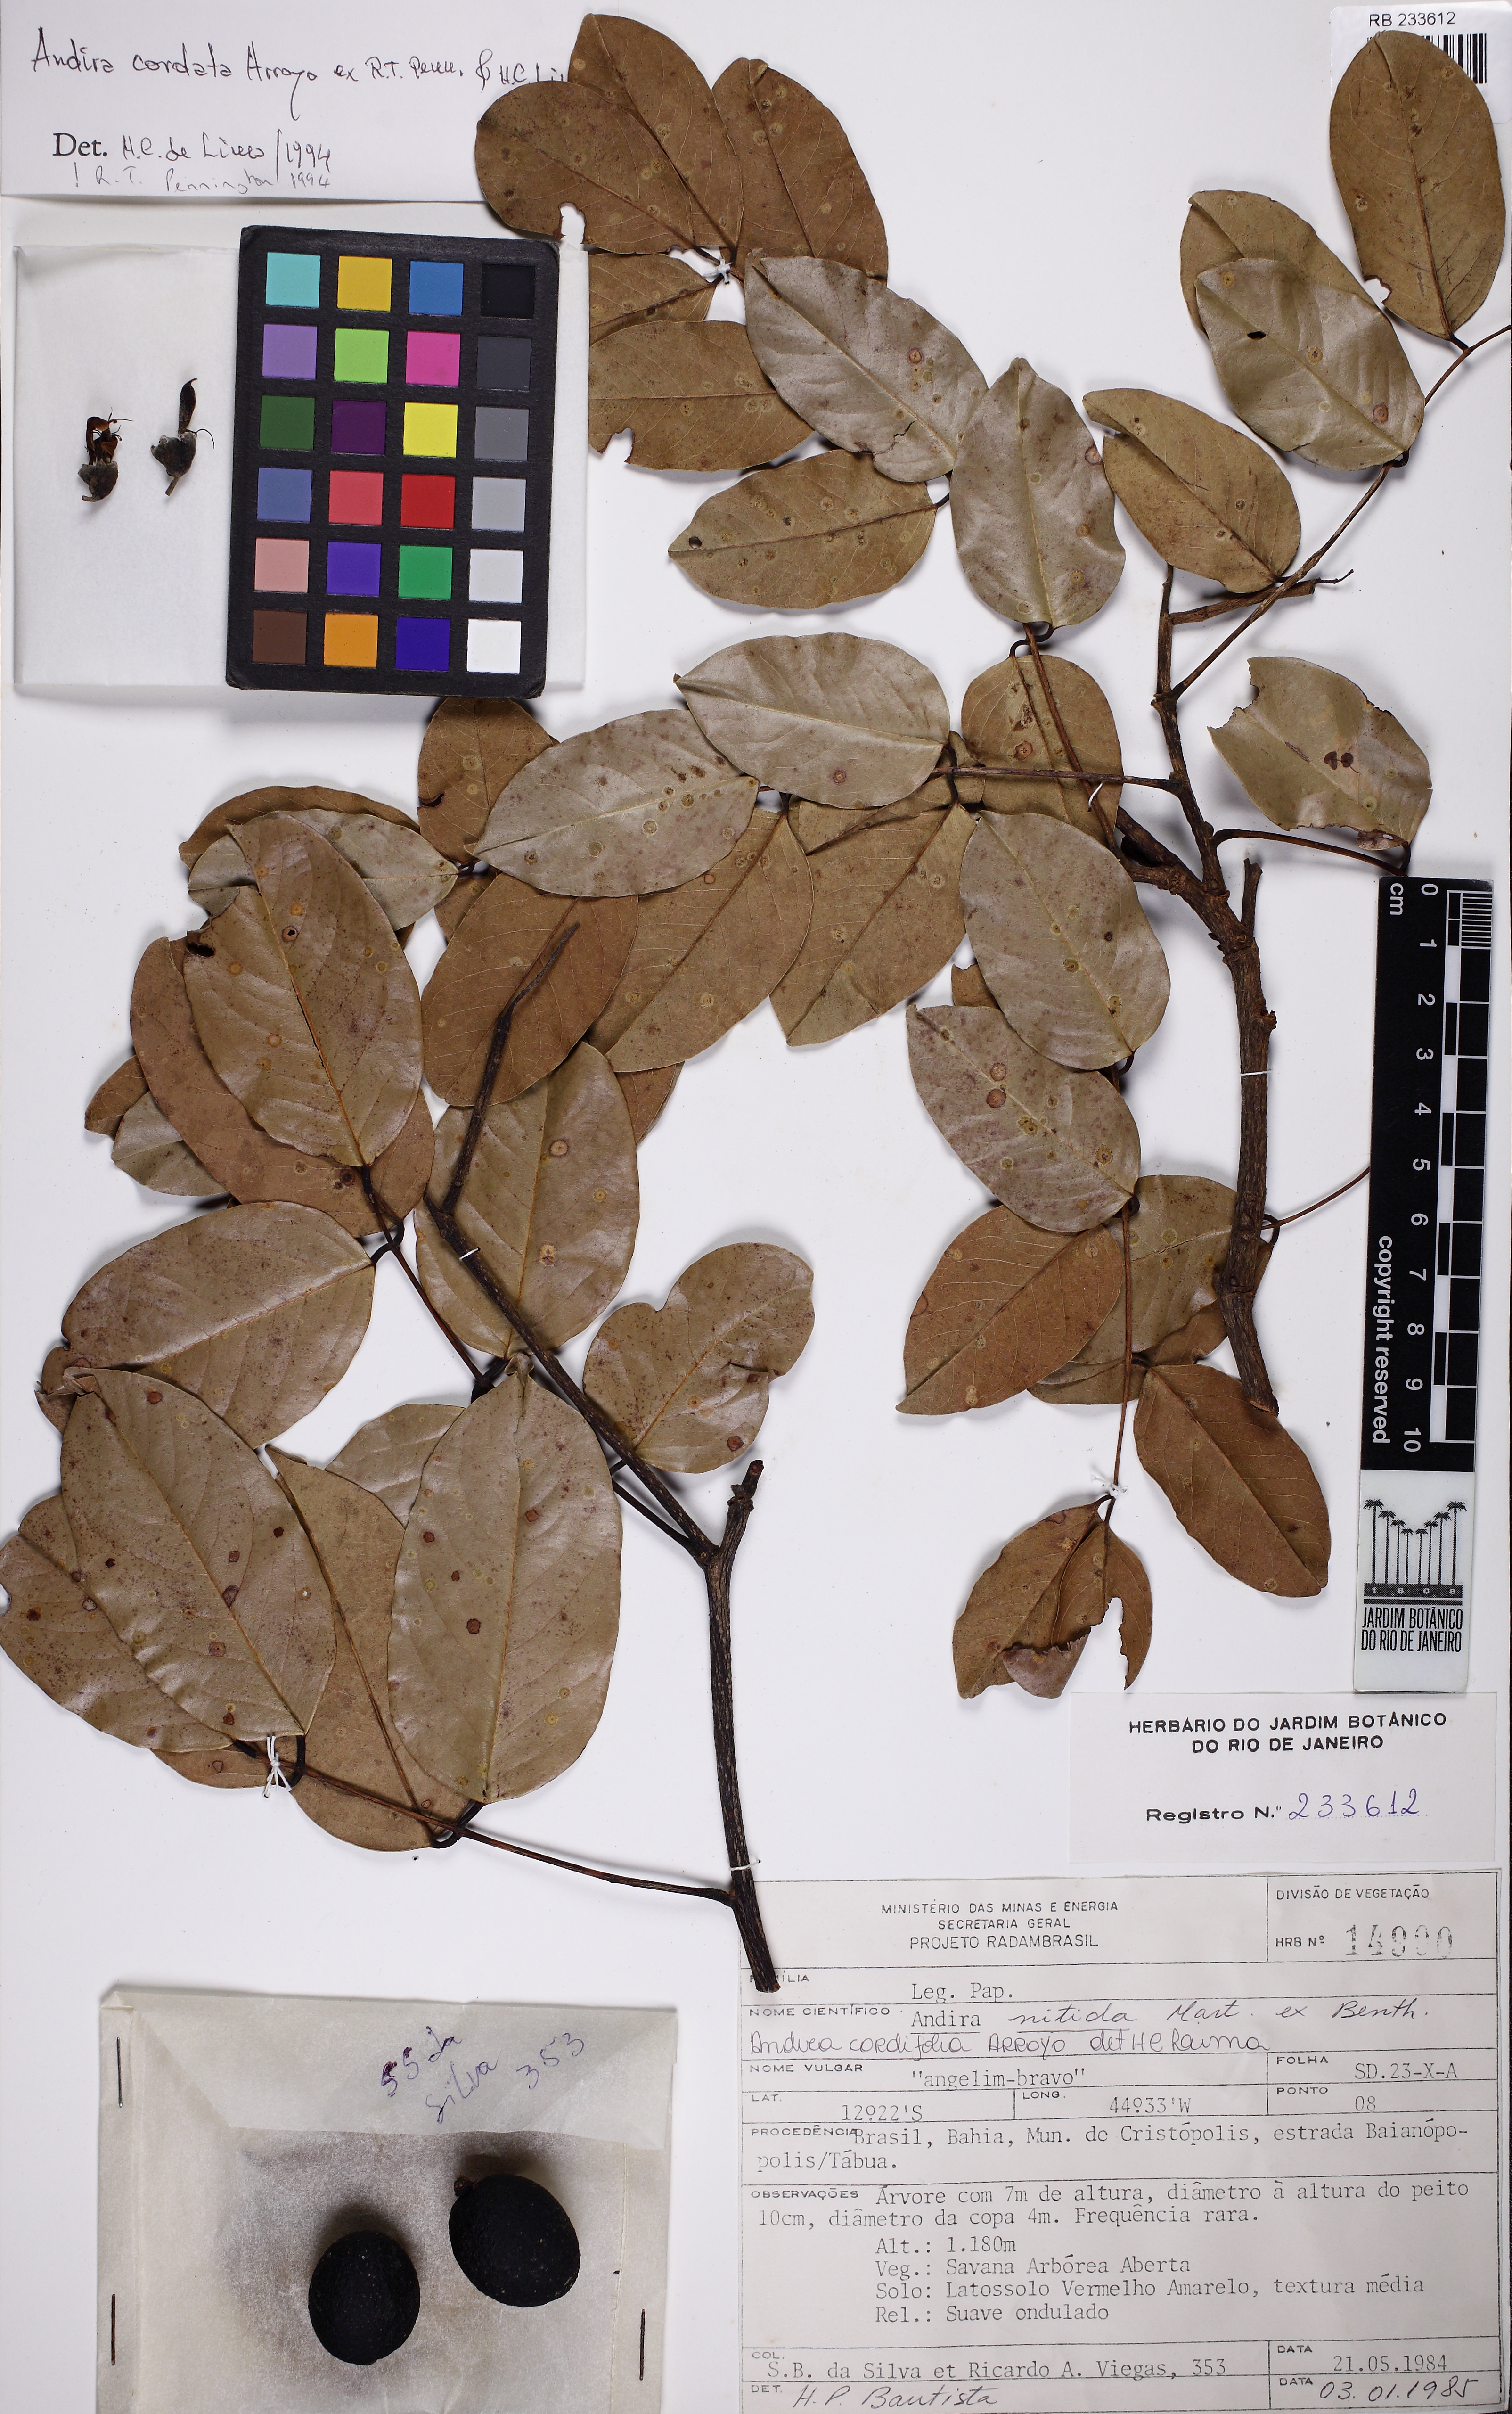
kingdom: Plantae
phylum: Tracheophyta
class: Magnoliopsida
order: Fabales
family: Fabaceae
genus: Andira
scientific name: Andira cordata
